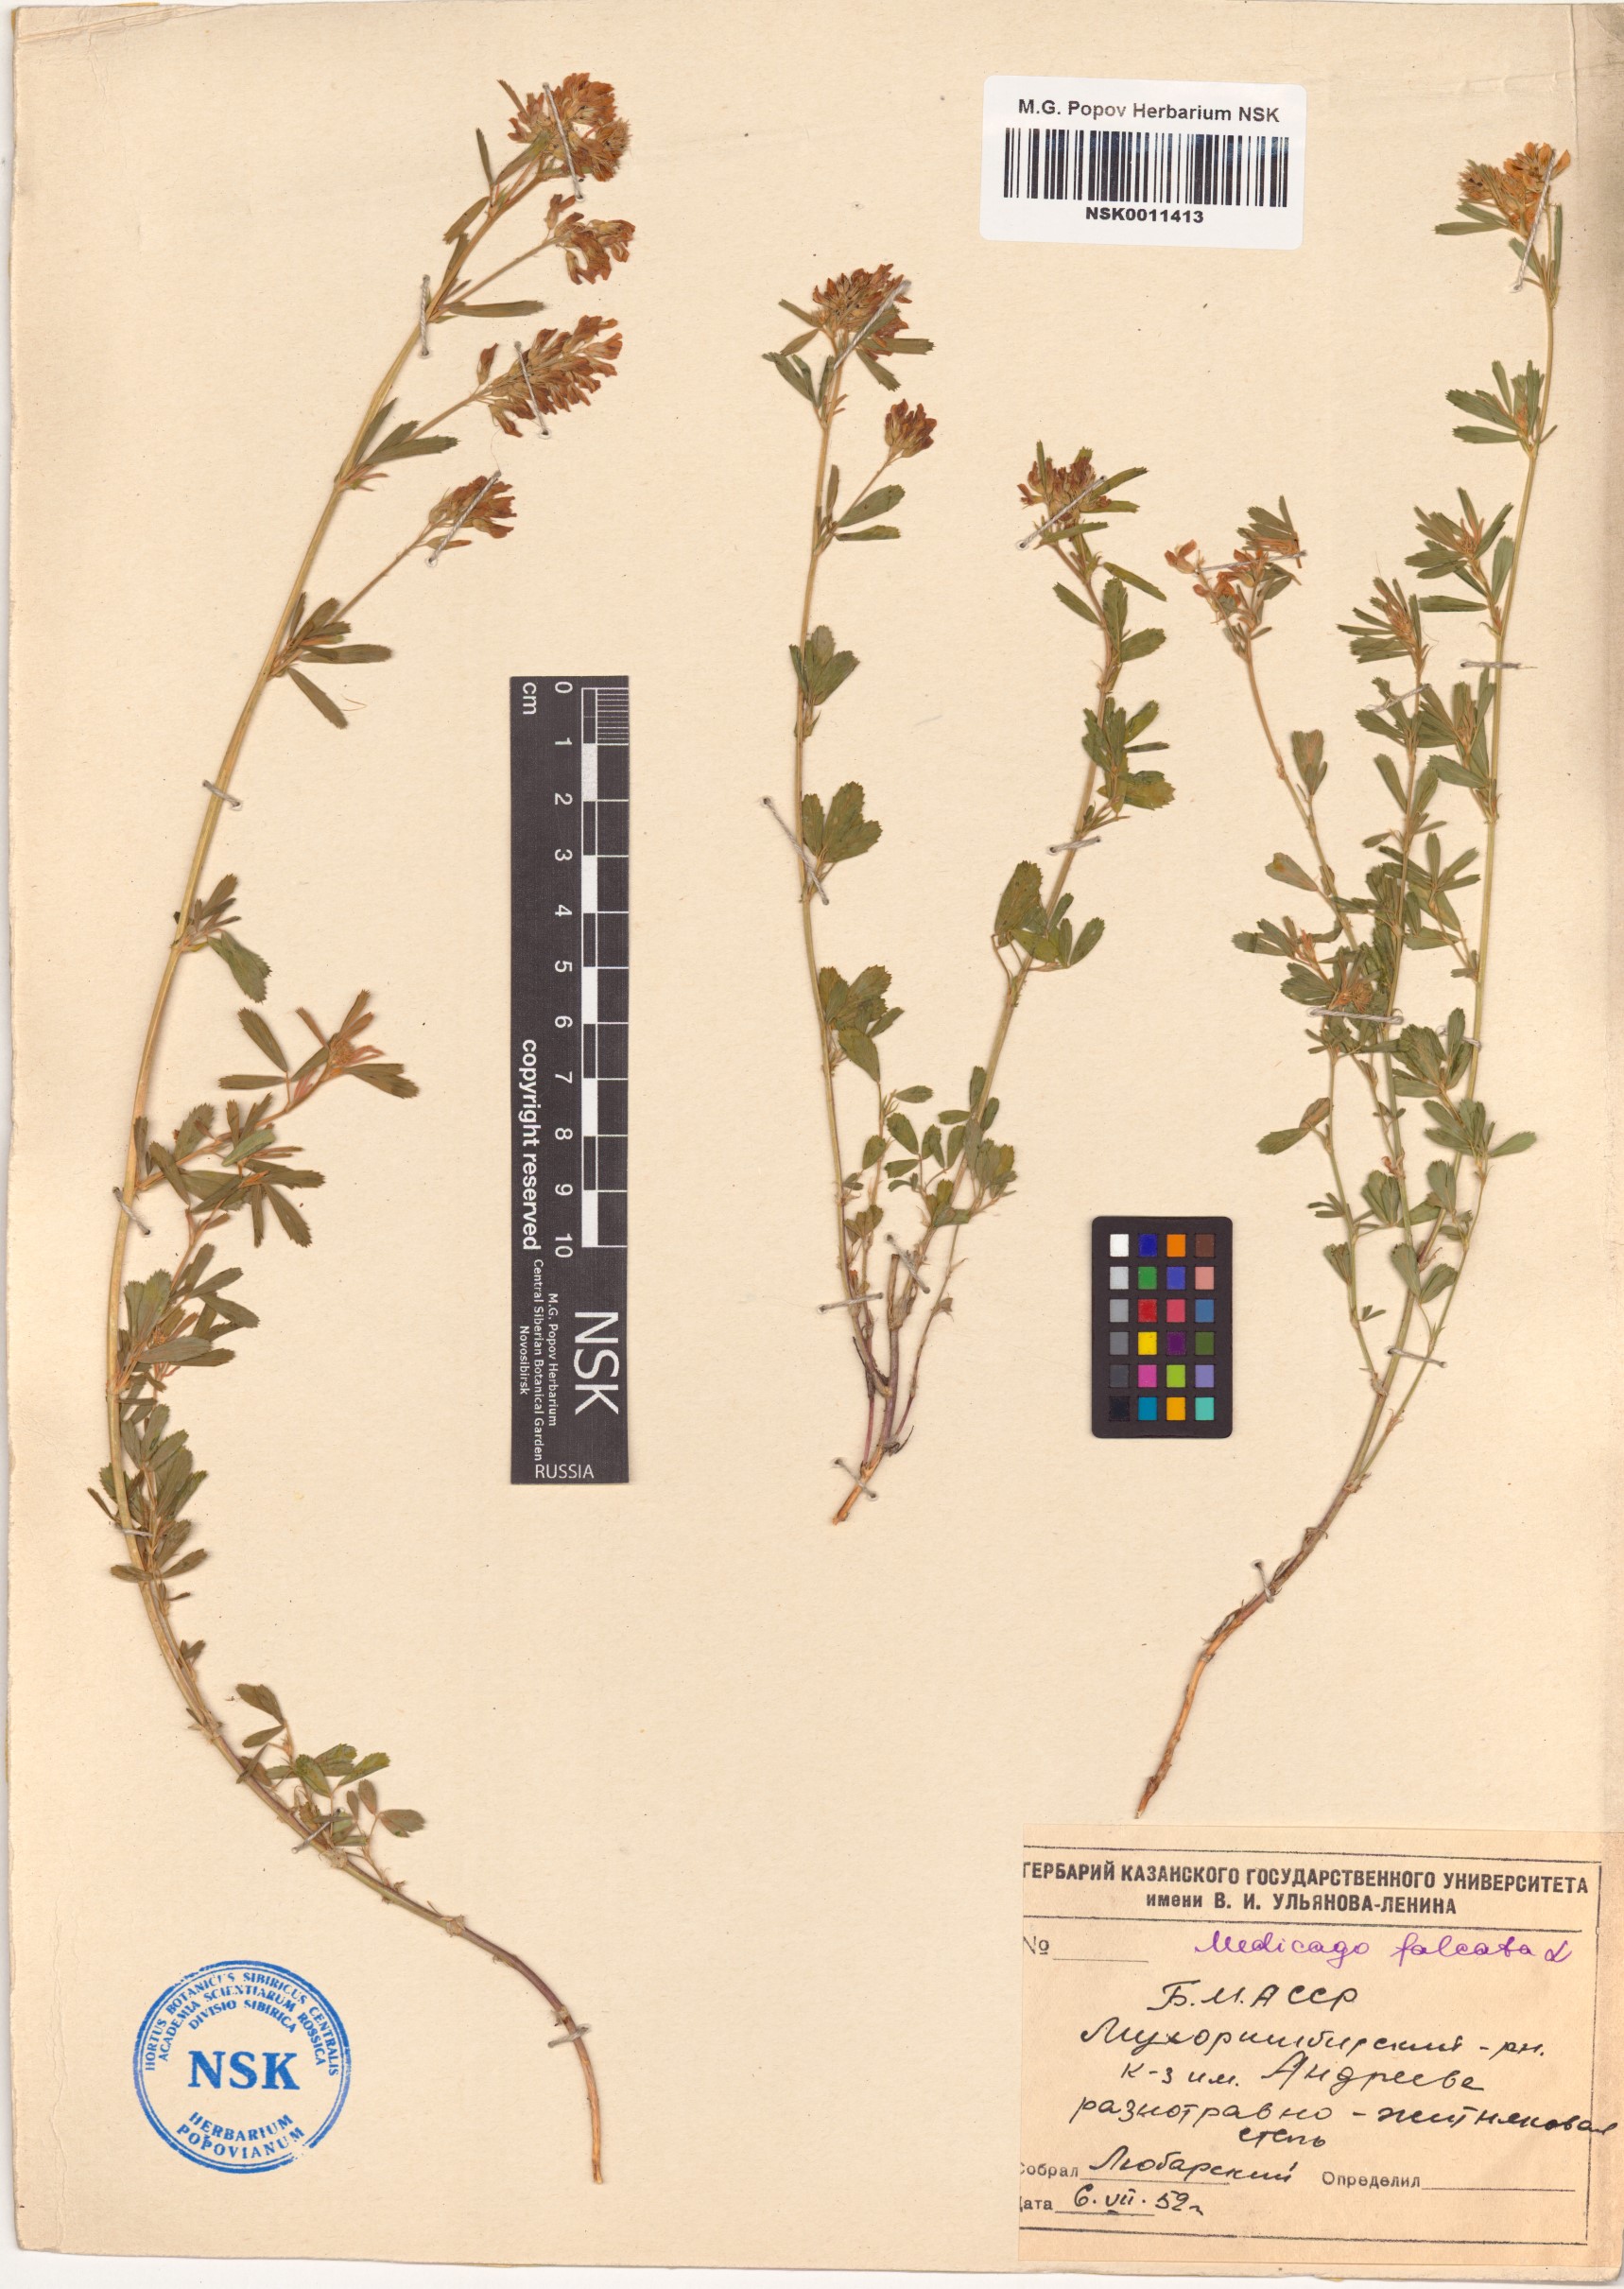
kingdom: Plantae
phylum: Tracheophyta
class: Magnoliopsida
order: Fabales
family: Fabaceae
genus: Medicago
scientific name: Medicago falcata
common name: Sickle medick
